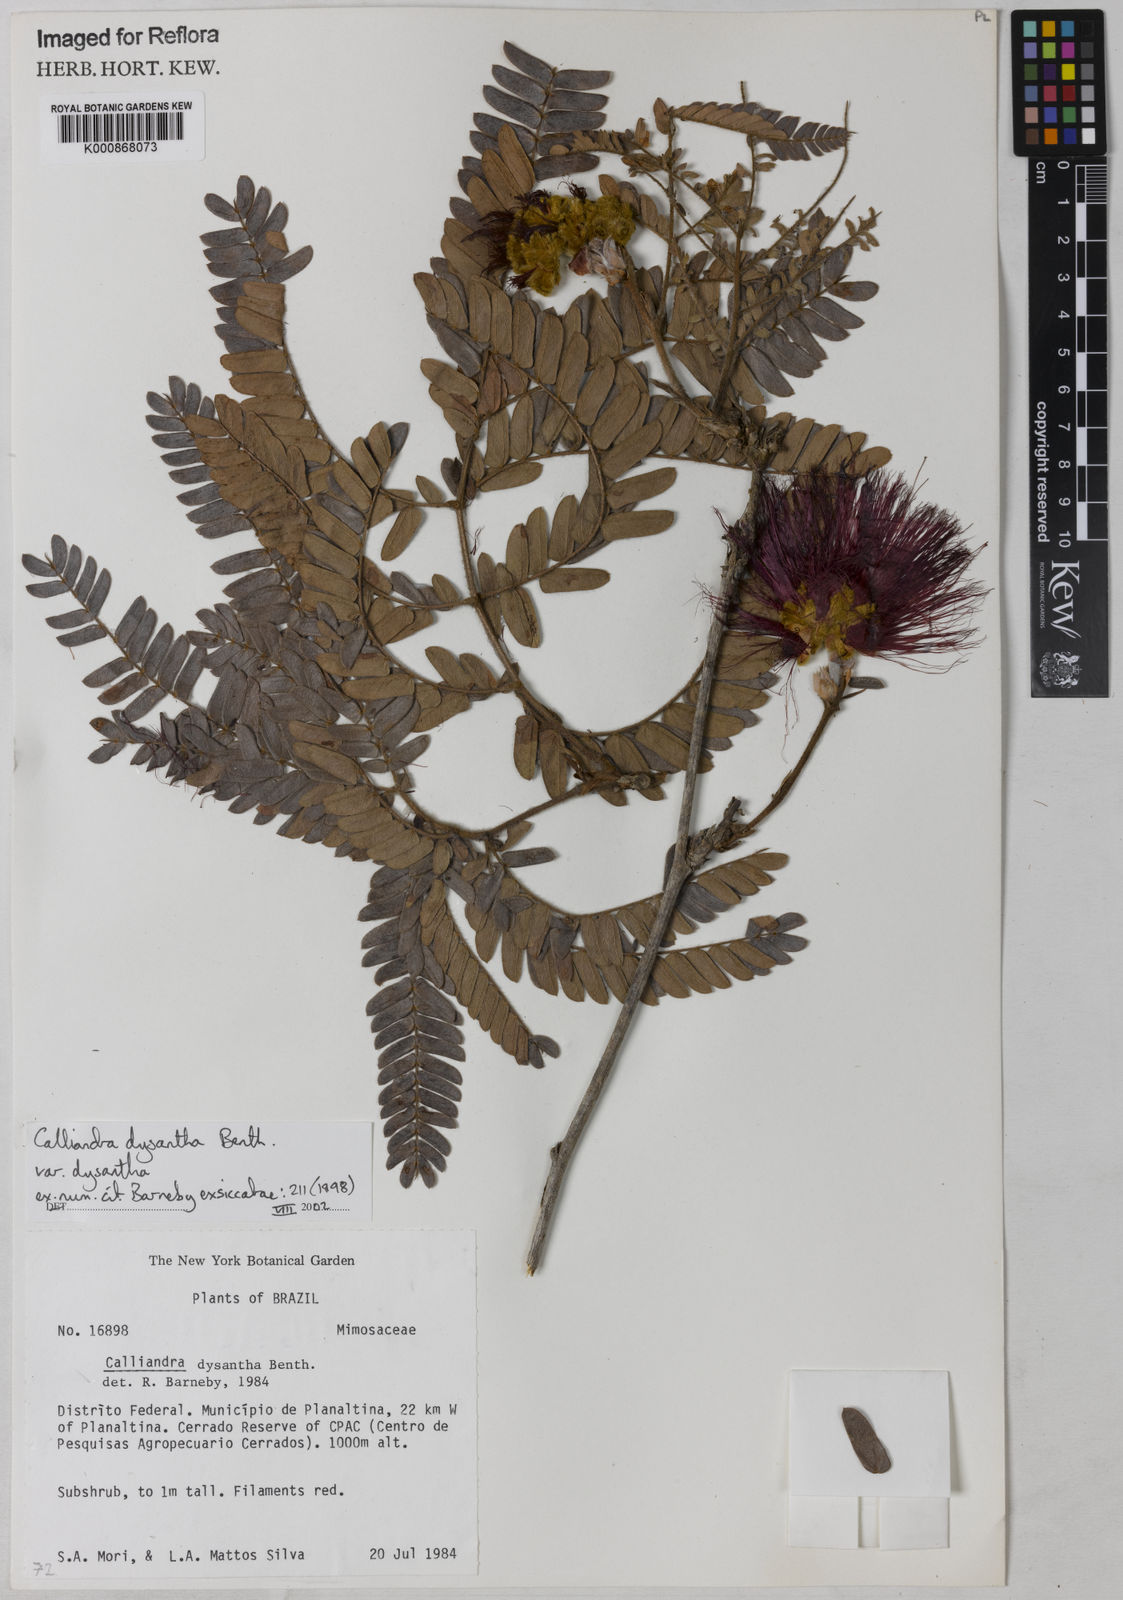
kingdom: Plantae
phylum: Tracheophyta
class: Magnoliopsida
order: Fabales
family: Fabaceae
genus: Calliandra
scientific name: Calliandra dysantha
